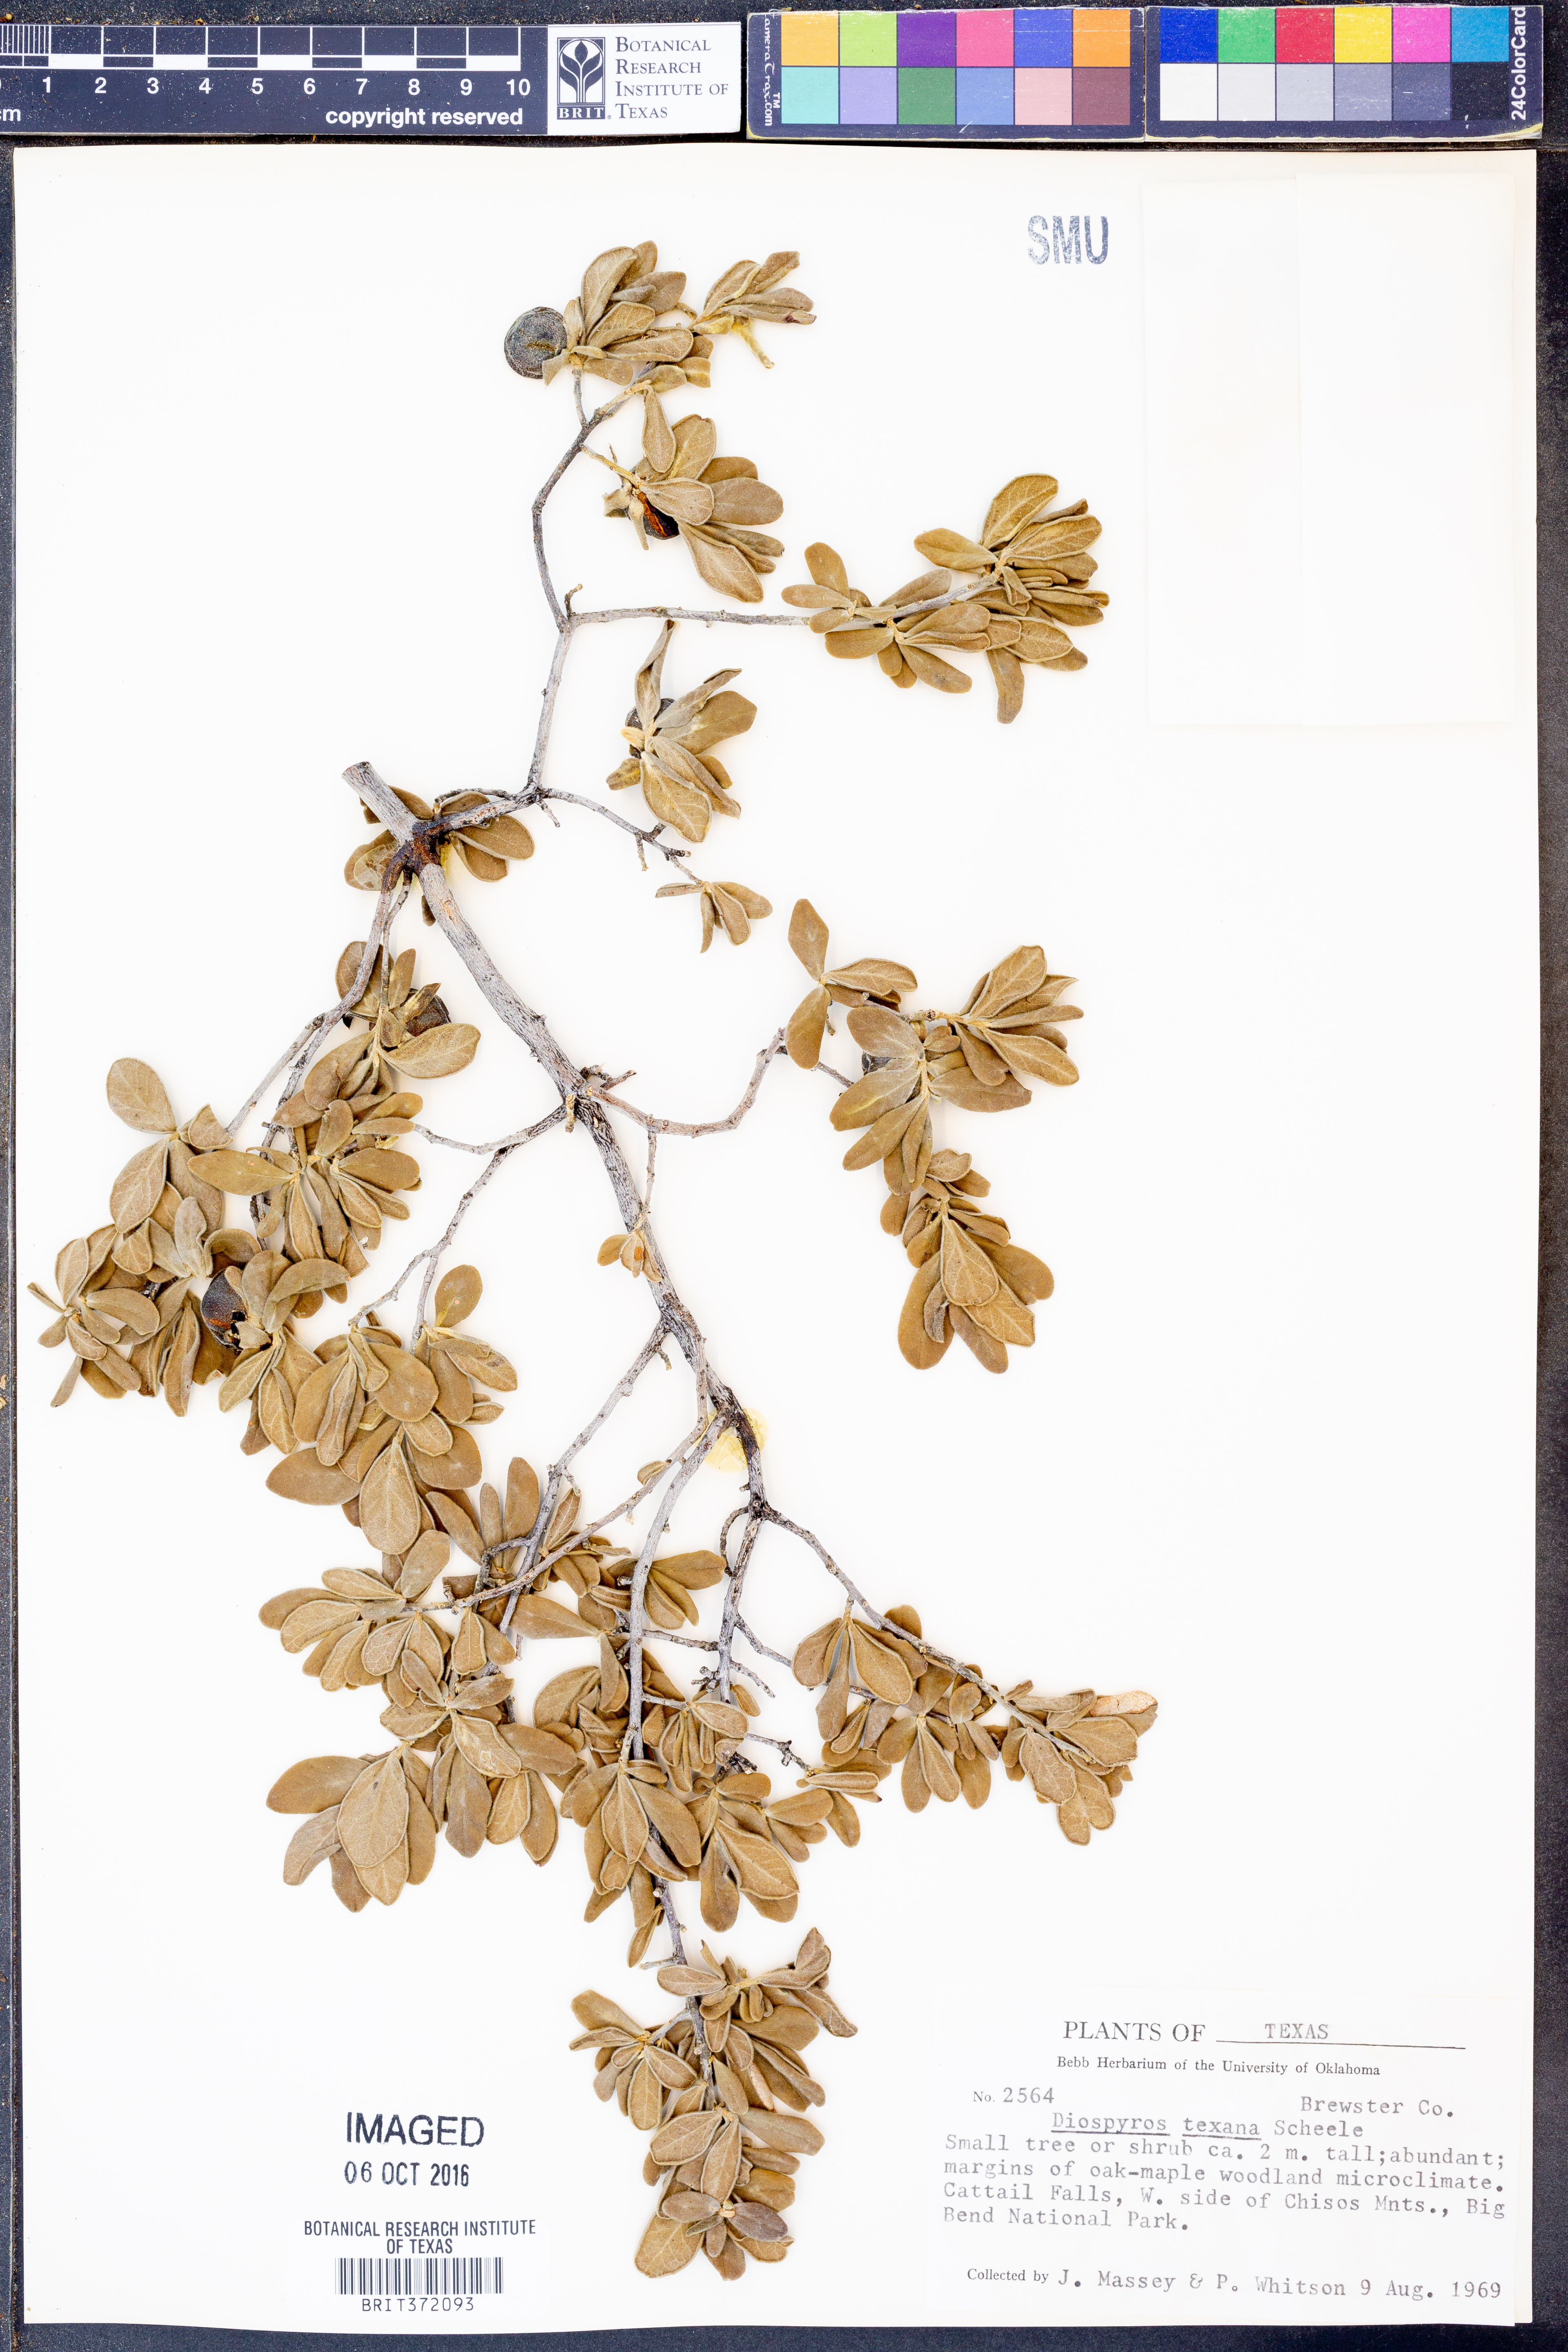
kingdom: Plantae
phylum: Tracheophyta
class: Magnoliopsida
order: Ericales
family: Ebenaceae
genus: Diospyros
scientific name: Diospyros texana
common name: Texas persimmon
